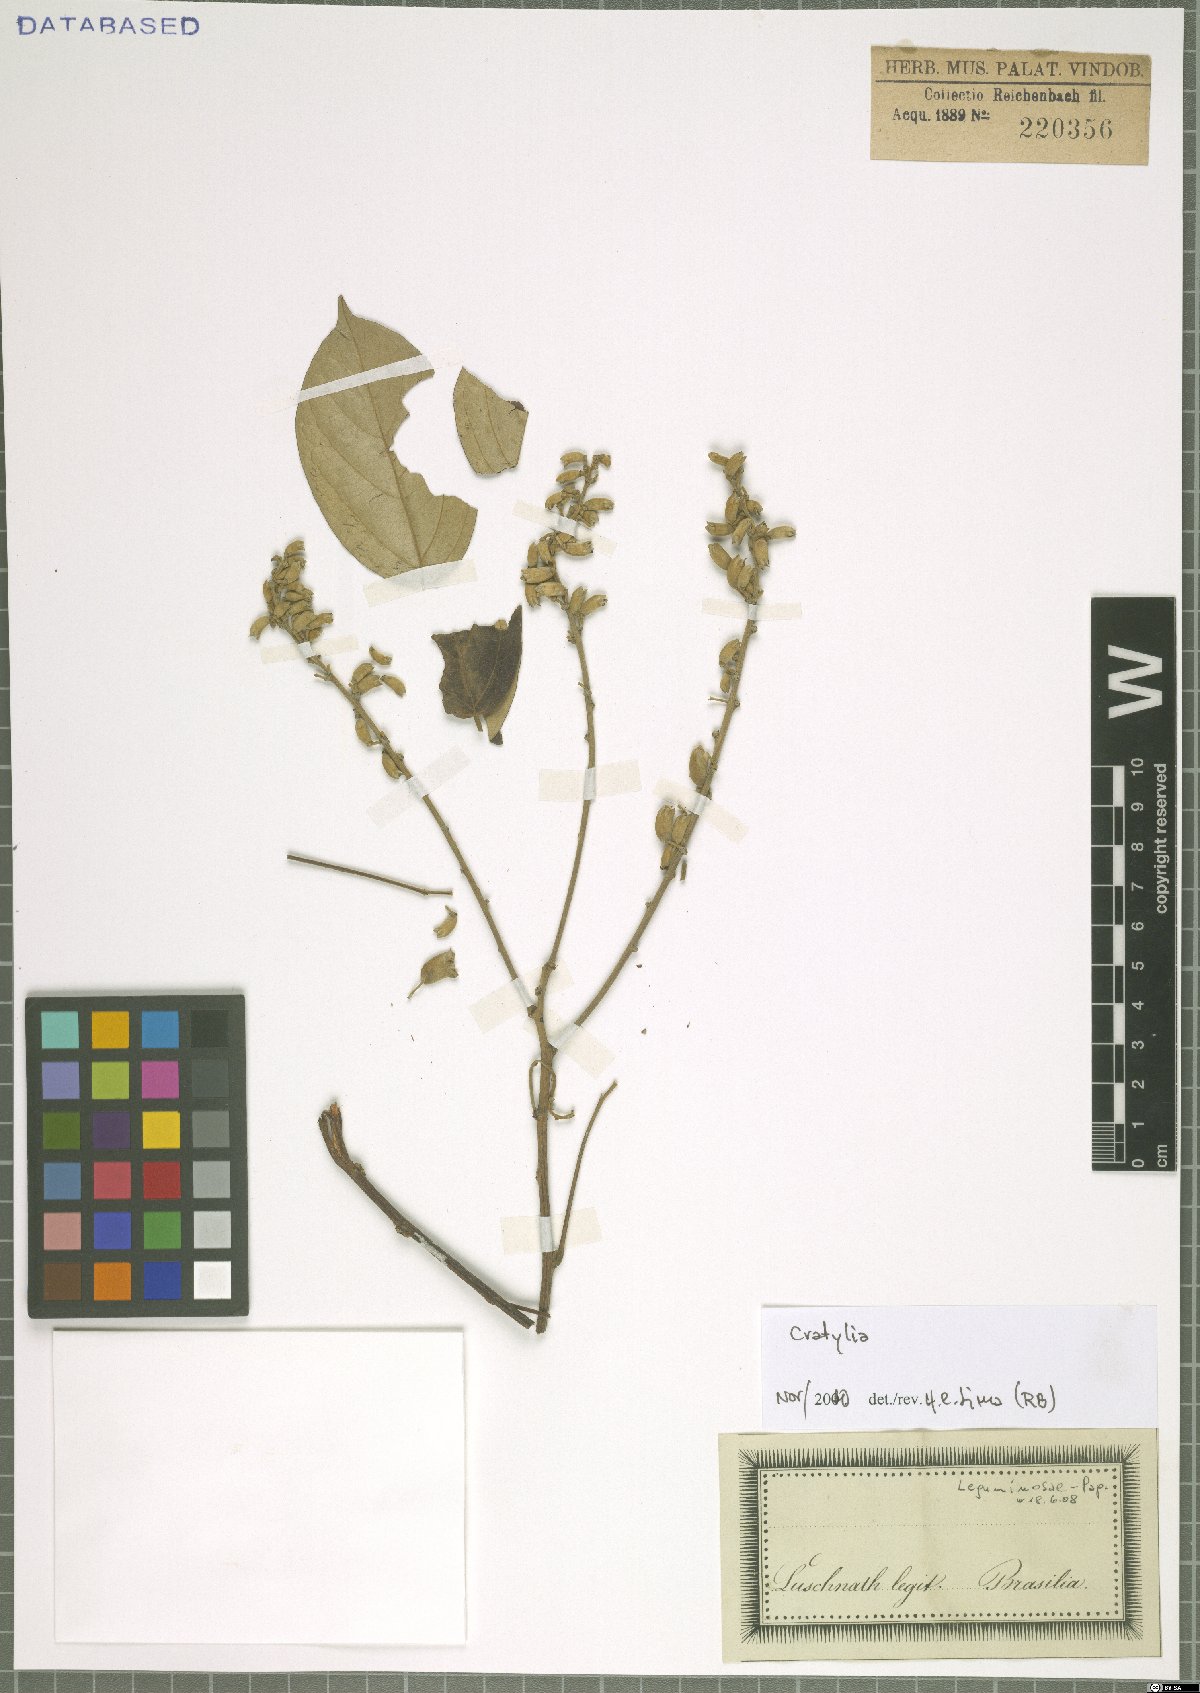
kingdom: Plantae
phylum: Tracheophyta
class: Magnoliopsida
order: Fabales
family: Fabaceae
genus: Cratylia
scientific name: Cratylia
